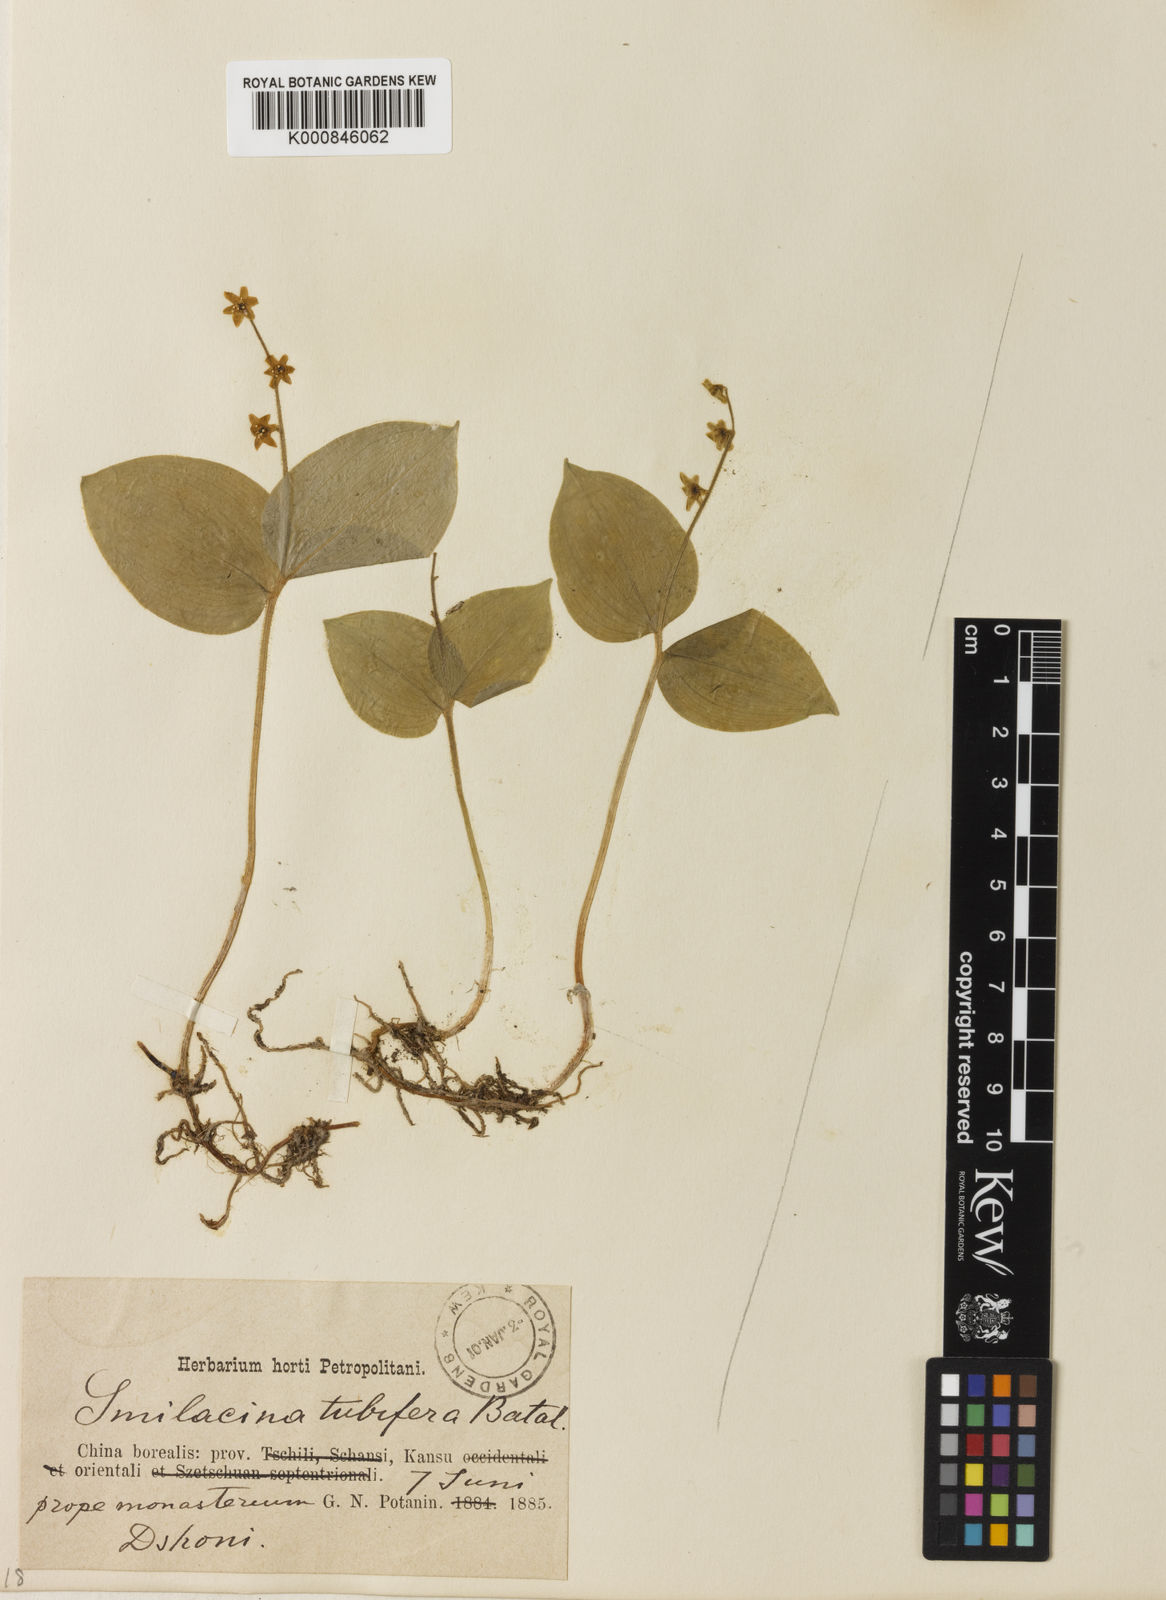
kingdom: Plantae
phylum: Tracheophyta
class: Liliopsida
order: Asparagales
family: Asparagaceae
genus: Maianthemum
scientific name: Maianthemum tubiferum
